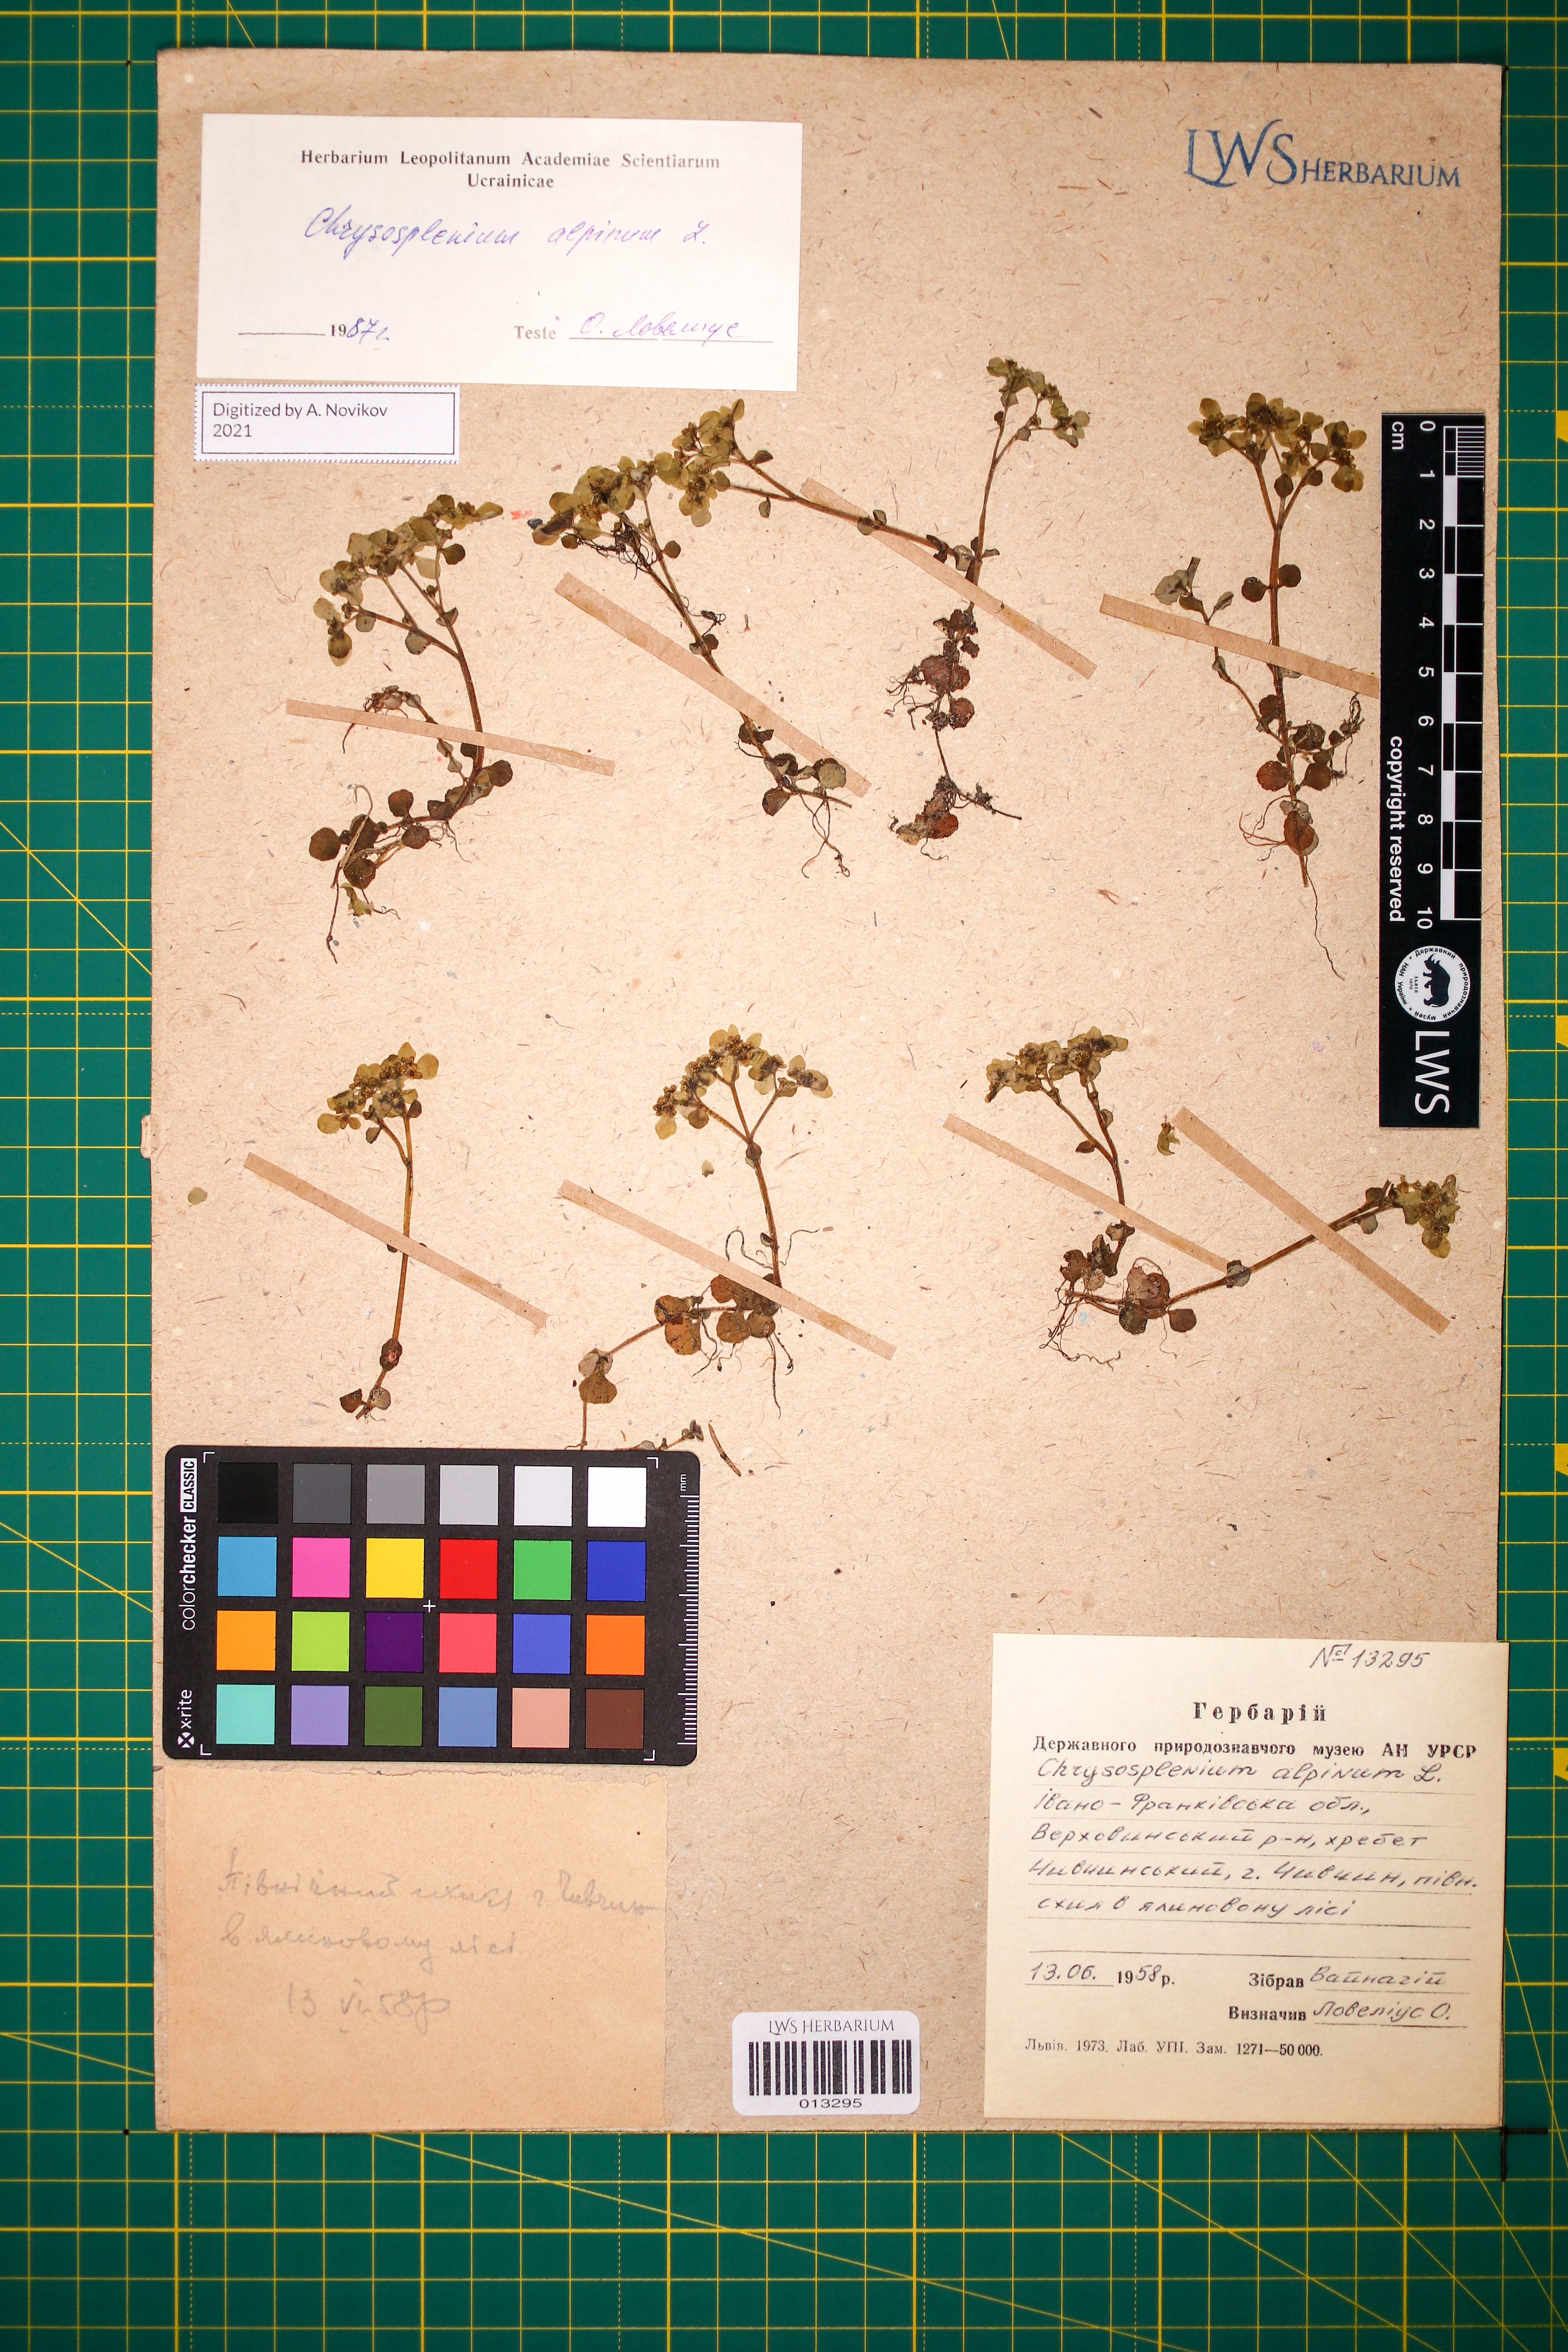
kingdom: Plantae
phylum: Tracheophyta
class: Magnoliopsida
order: Saxifragales
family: Saxifragaceae
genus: Chrysosplenium
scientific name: Chrysosplenium alpinum
